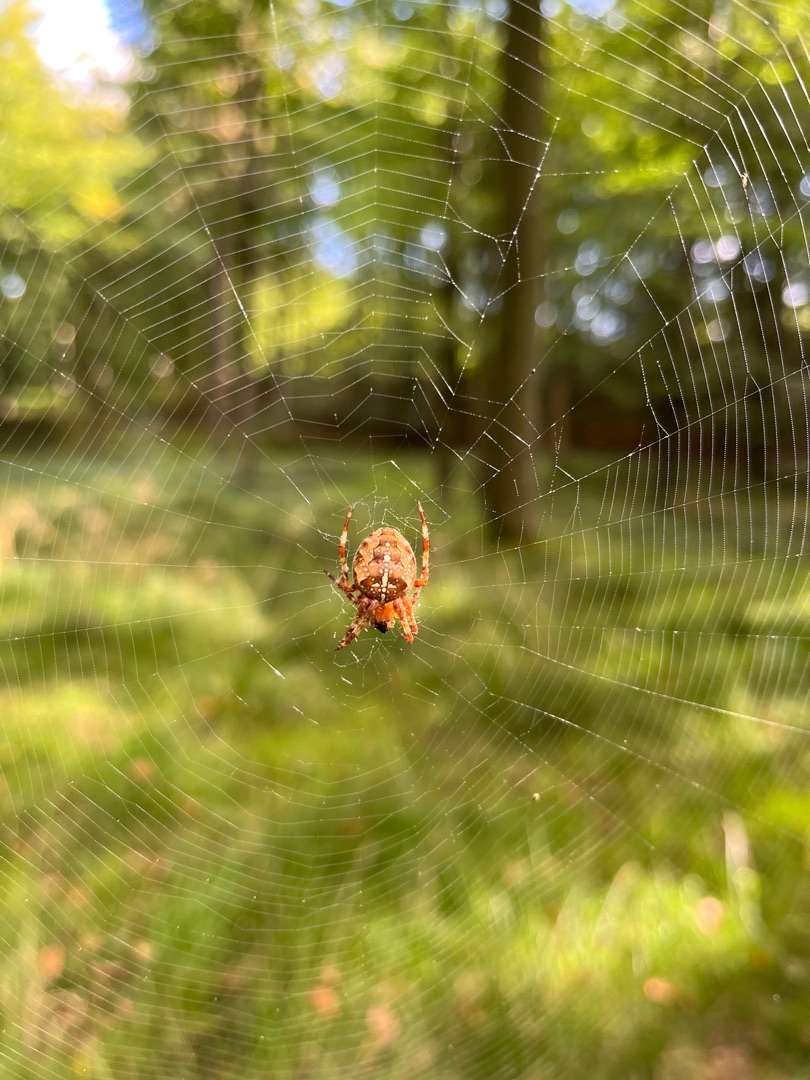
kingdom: Animalia
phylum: Arthropoda
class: Arachnida
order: Araneae
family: Araneidae
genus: Araneus
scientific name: Araneus diadematus
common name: Korsedderkop
